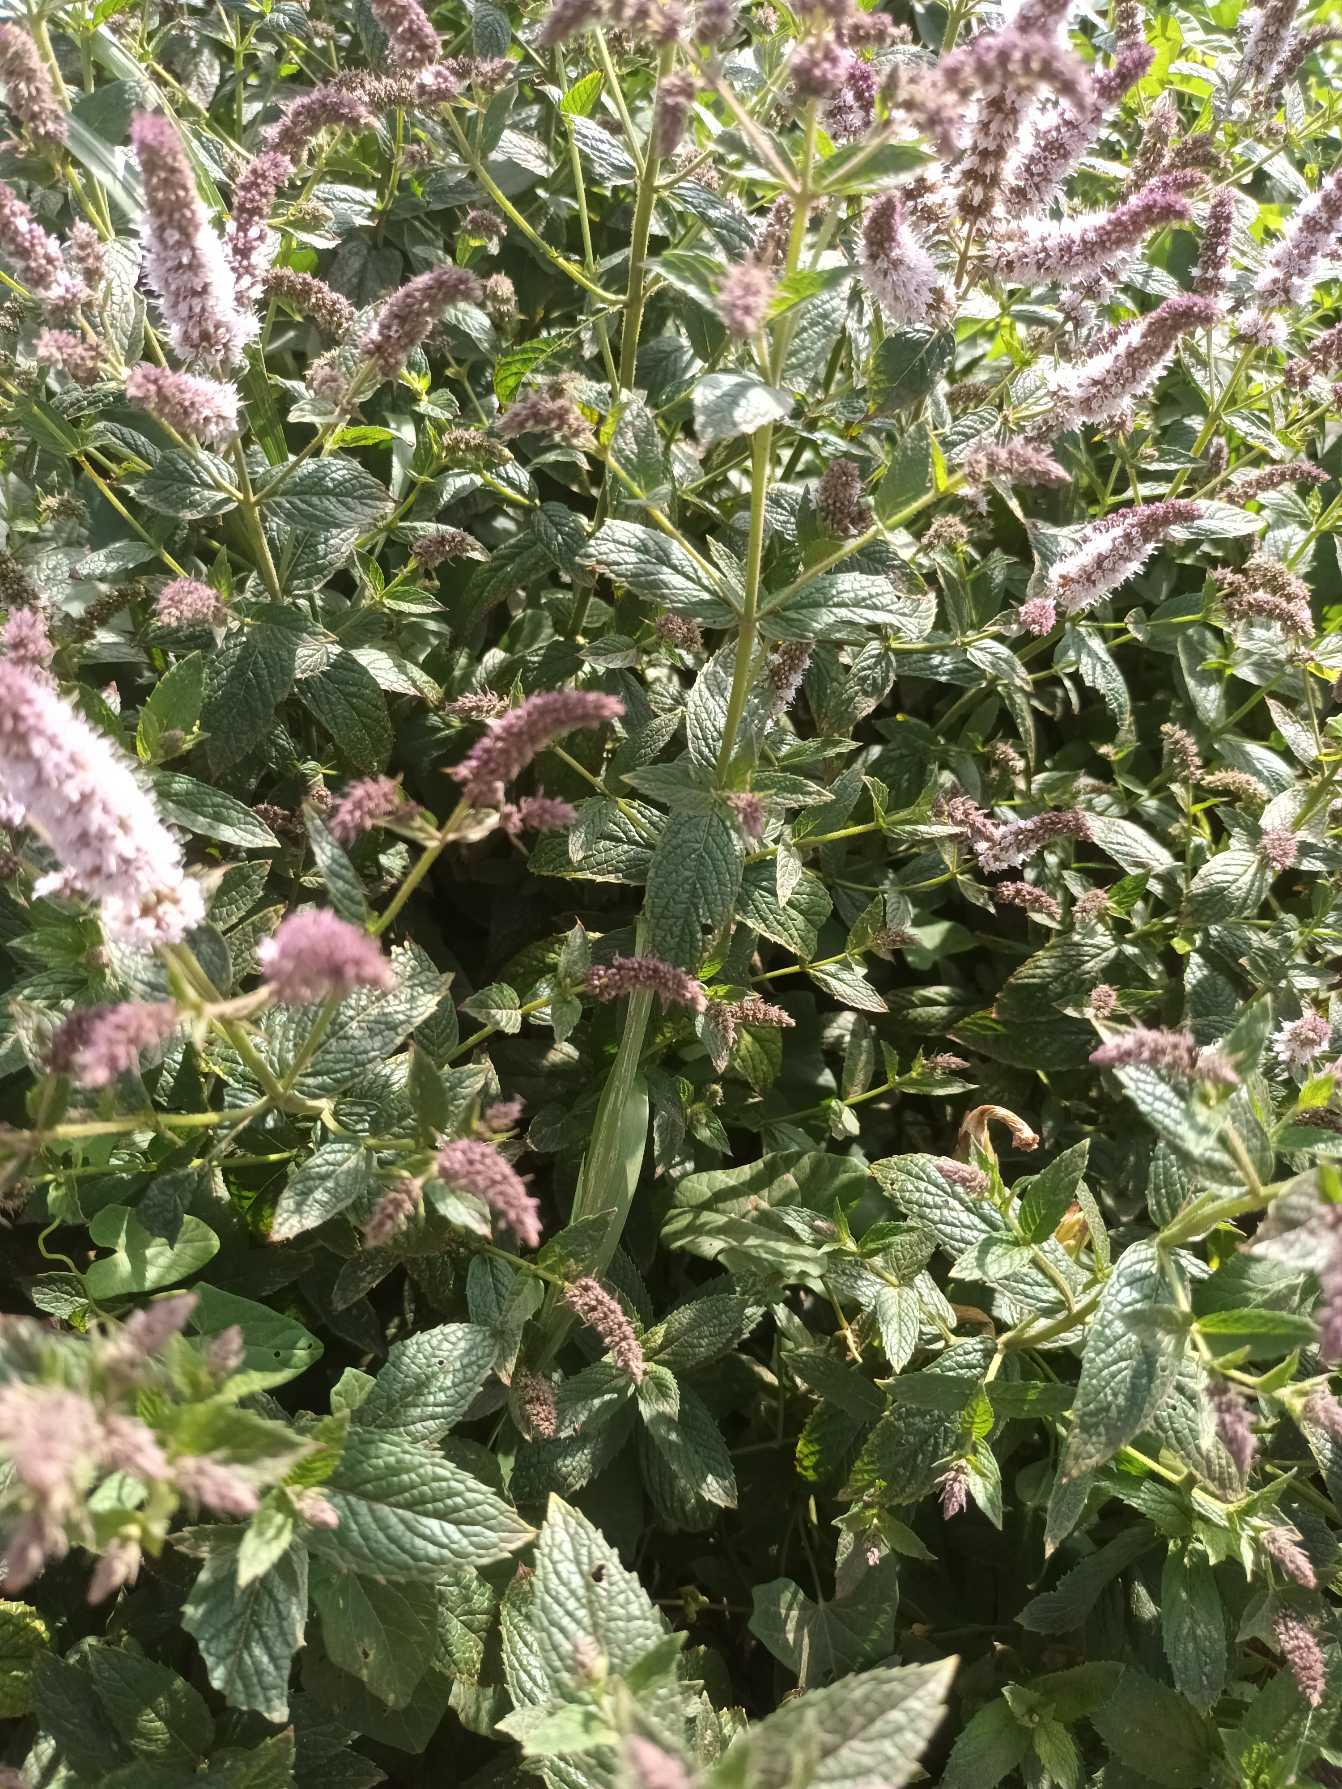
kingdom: Plantae
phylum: Tracheophyta
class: Magnoliopsida
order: Lamiales
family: Lamiaceae
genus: Mentha
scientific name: Mentha spicata
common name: Grøn mynte
